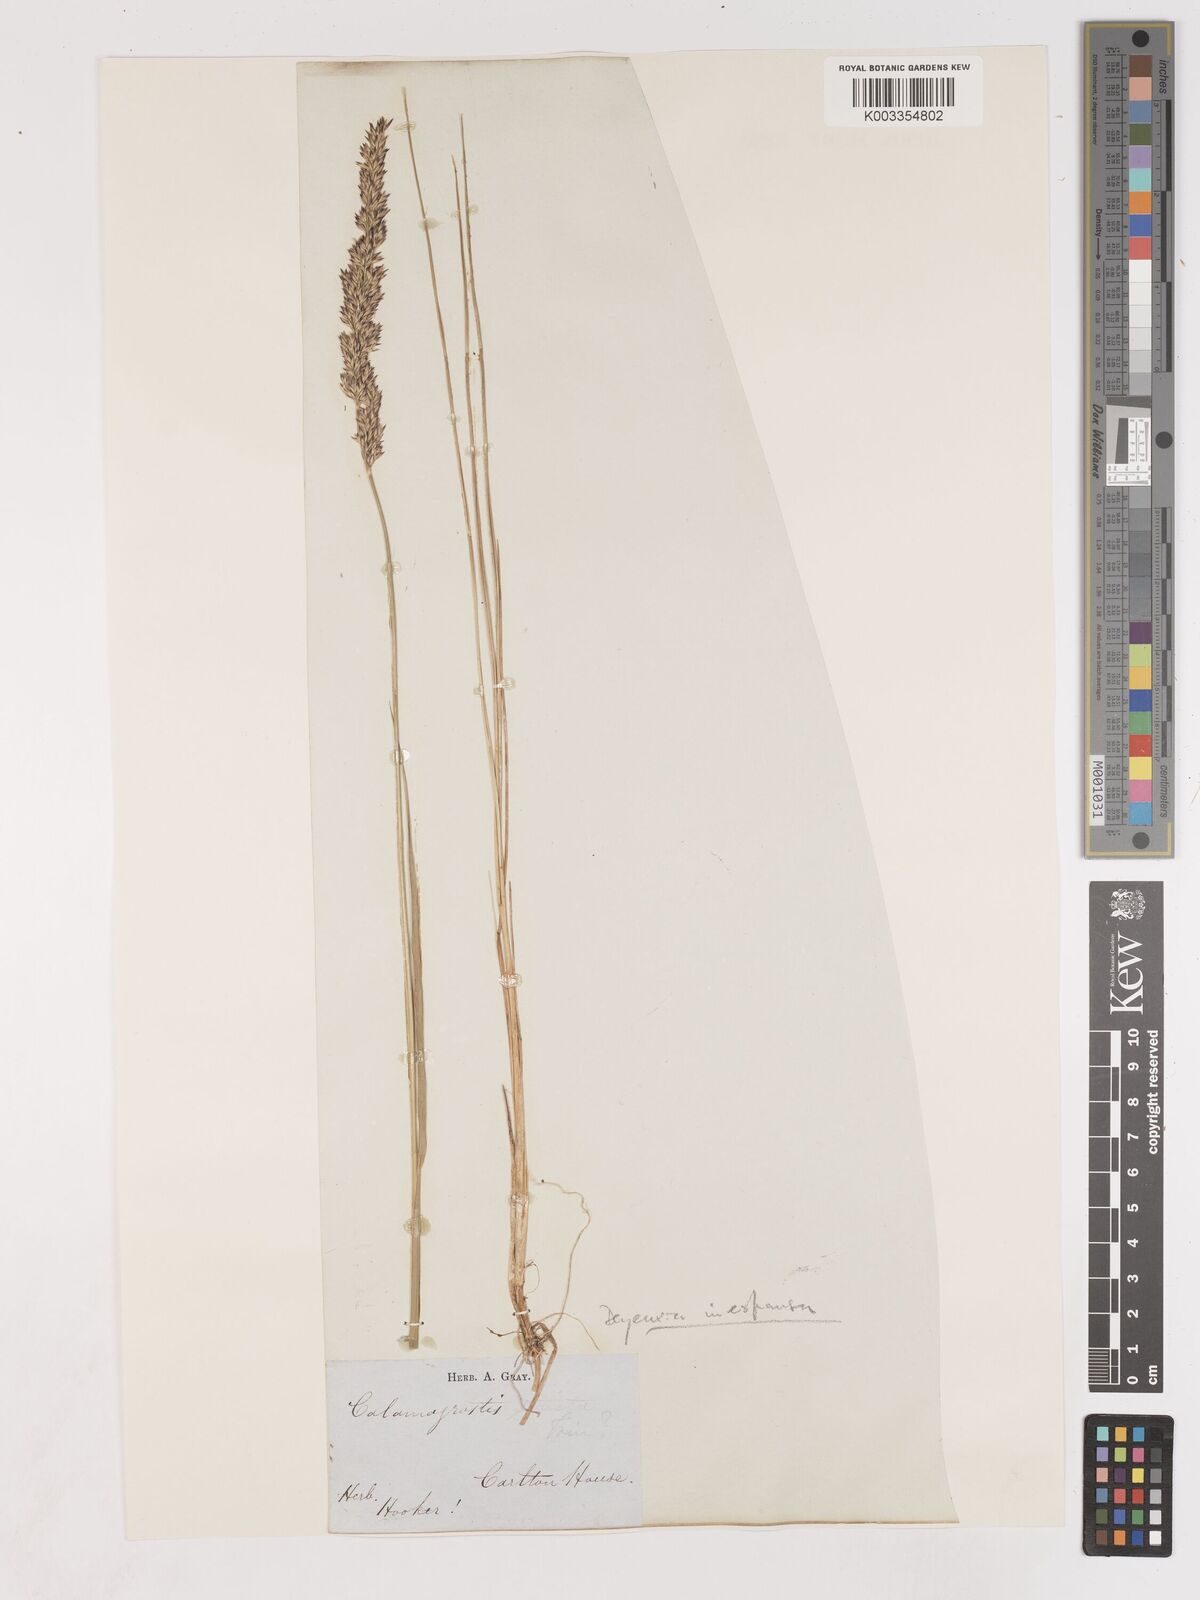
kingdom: Plantae
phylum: Tracheophyta
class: Liliopsida
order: Poales
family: Poaceae
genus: Cinnagrostis
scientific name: Cinnagrostis recta
